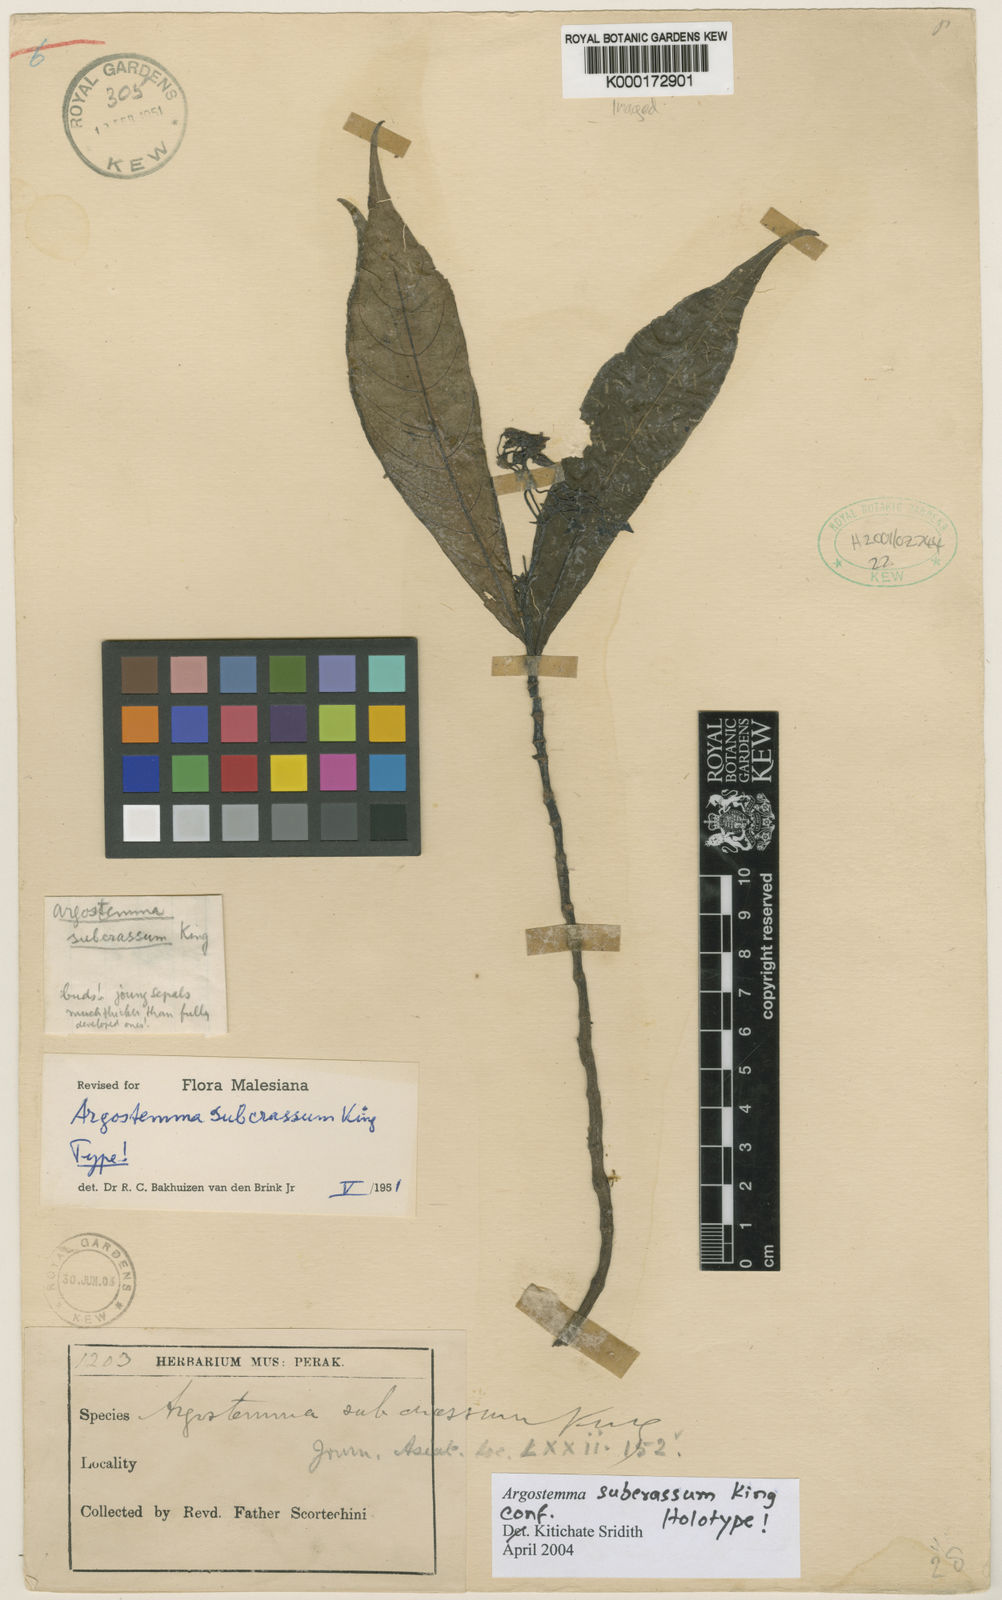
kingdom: Plantae
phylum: Tracheophyta
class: Magnoliopsida
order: Gentianales
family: Rubiaceae
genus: Argostemma
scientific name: Argostemma subcrassum
